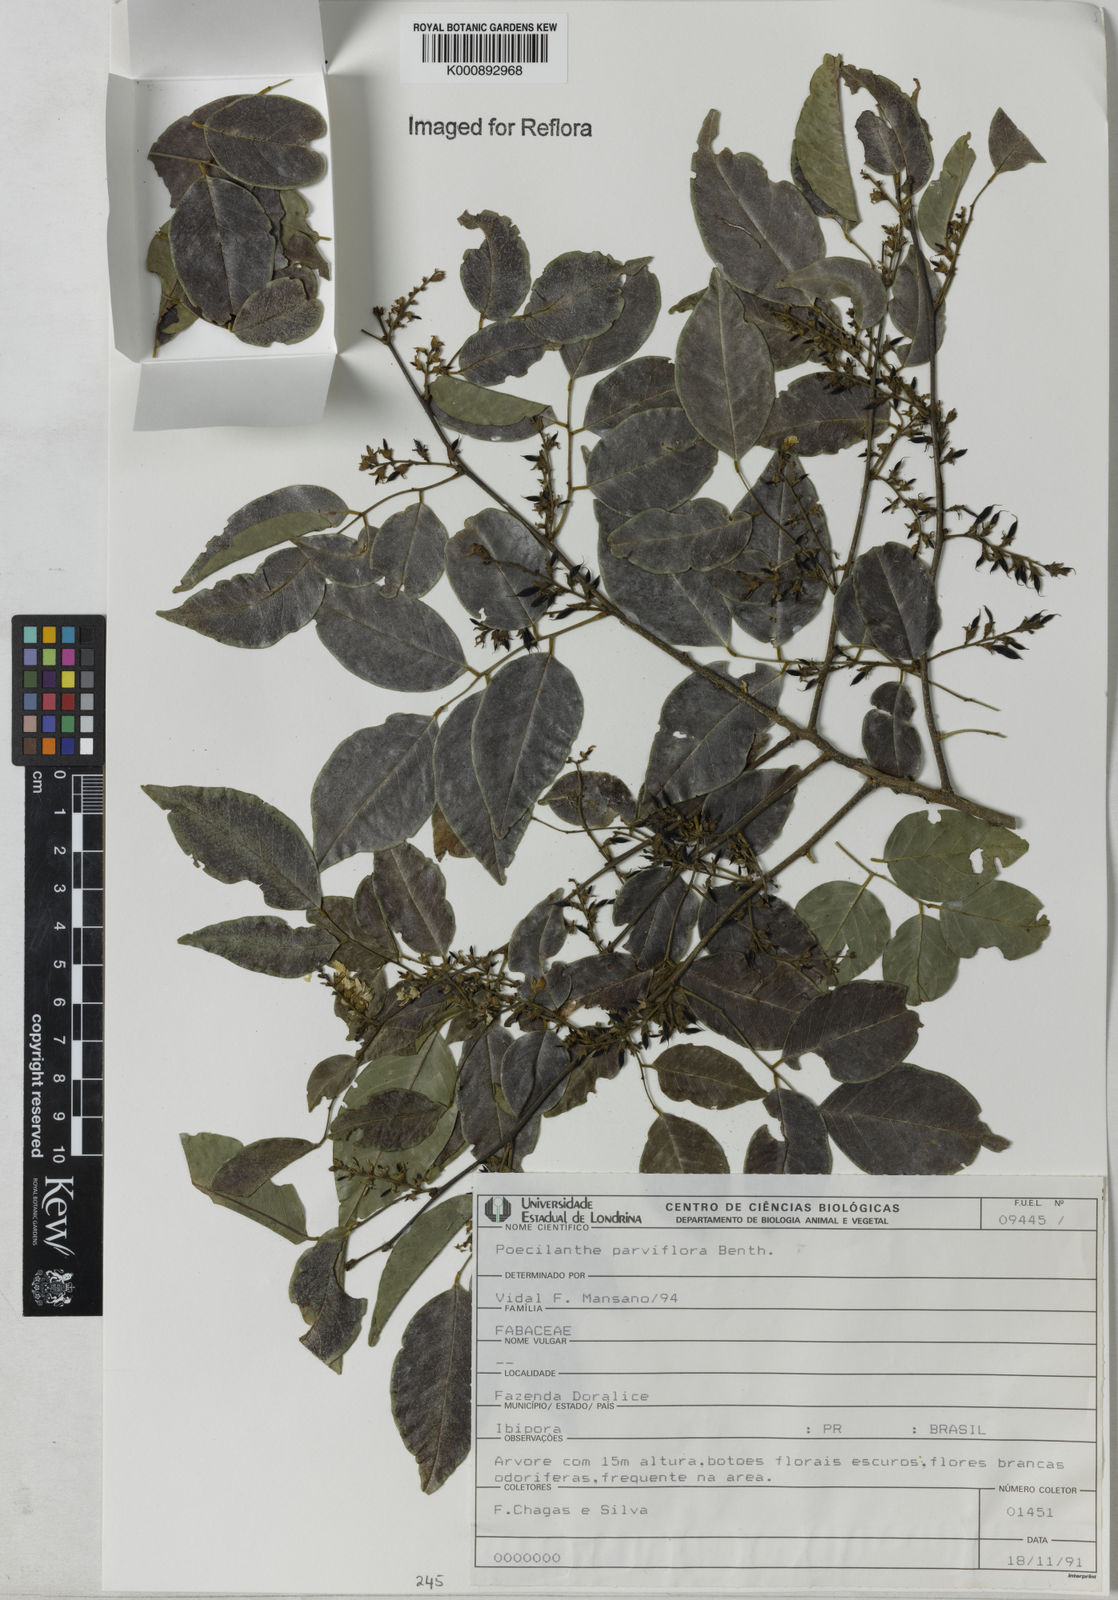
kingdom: Plantae
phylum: Tracheophyta
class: Magnoliopsida
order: Fabales
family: Fabaceae
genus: Poecilanthe
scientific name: Poecilanthe parviflora
